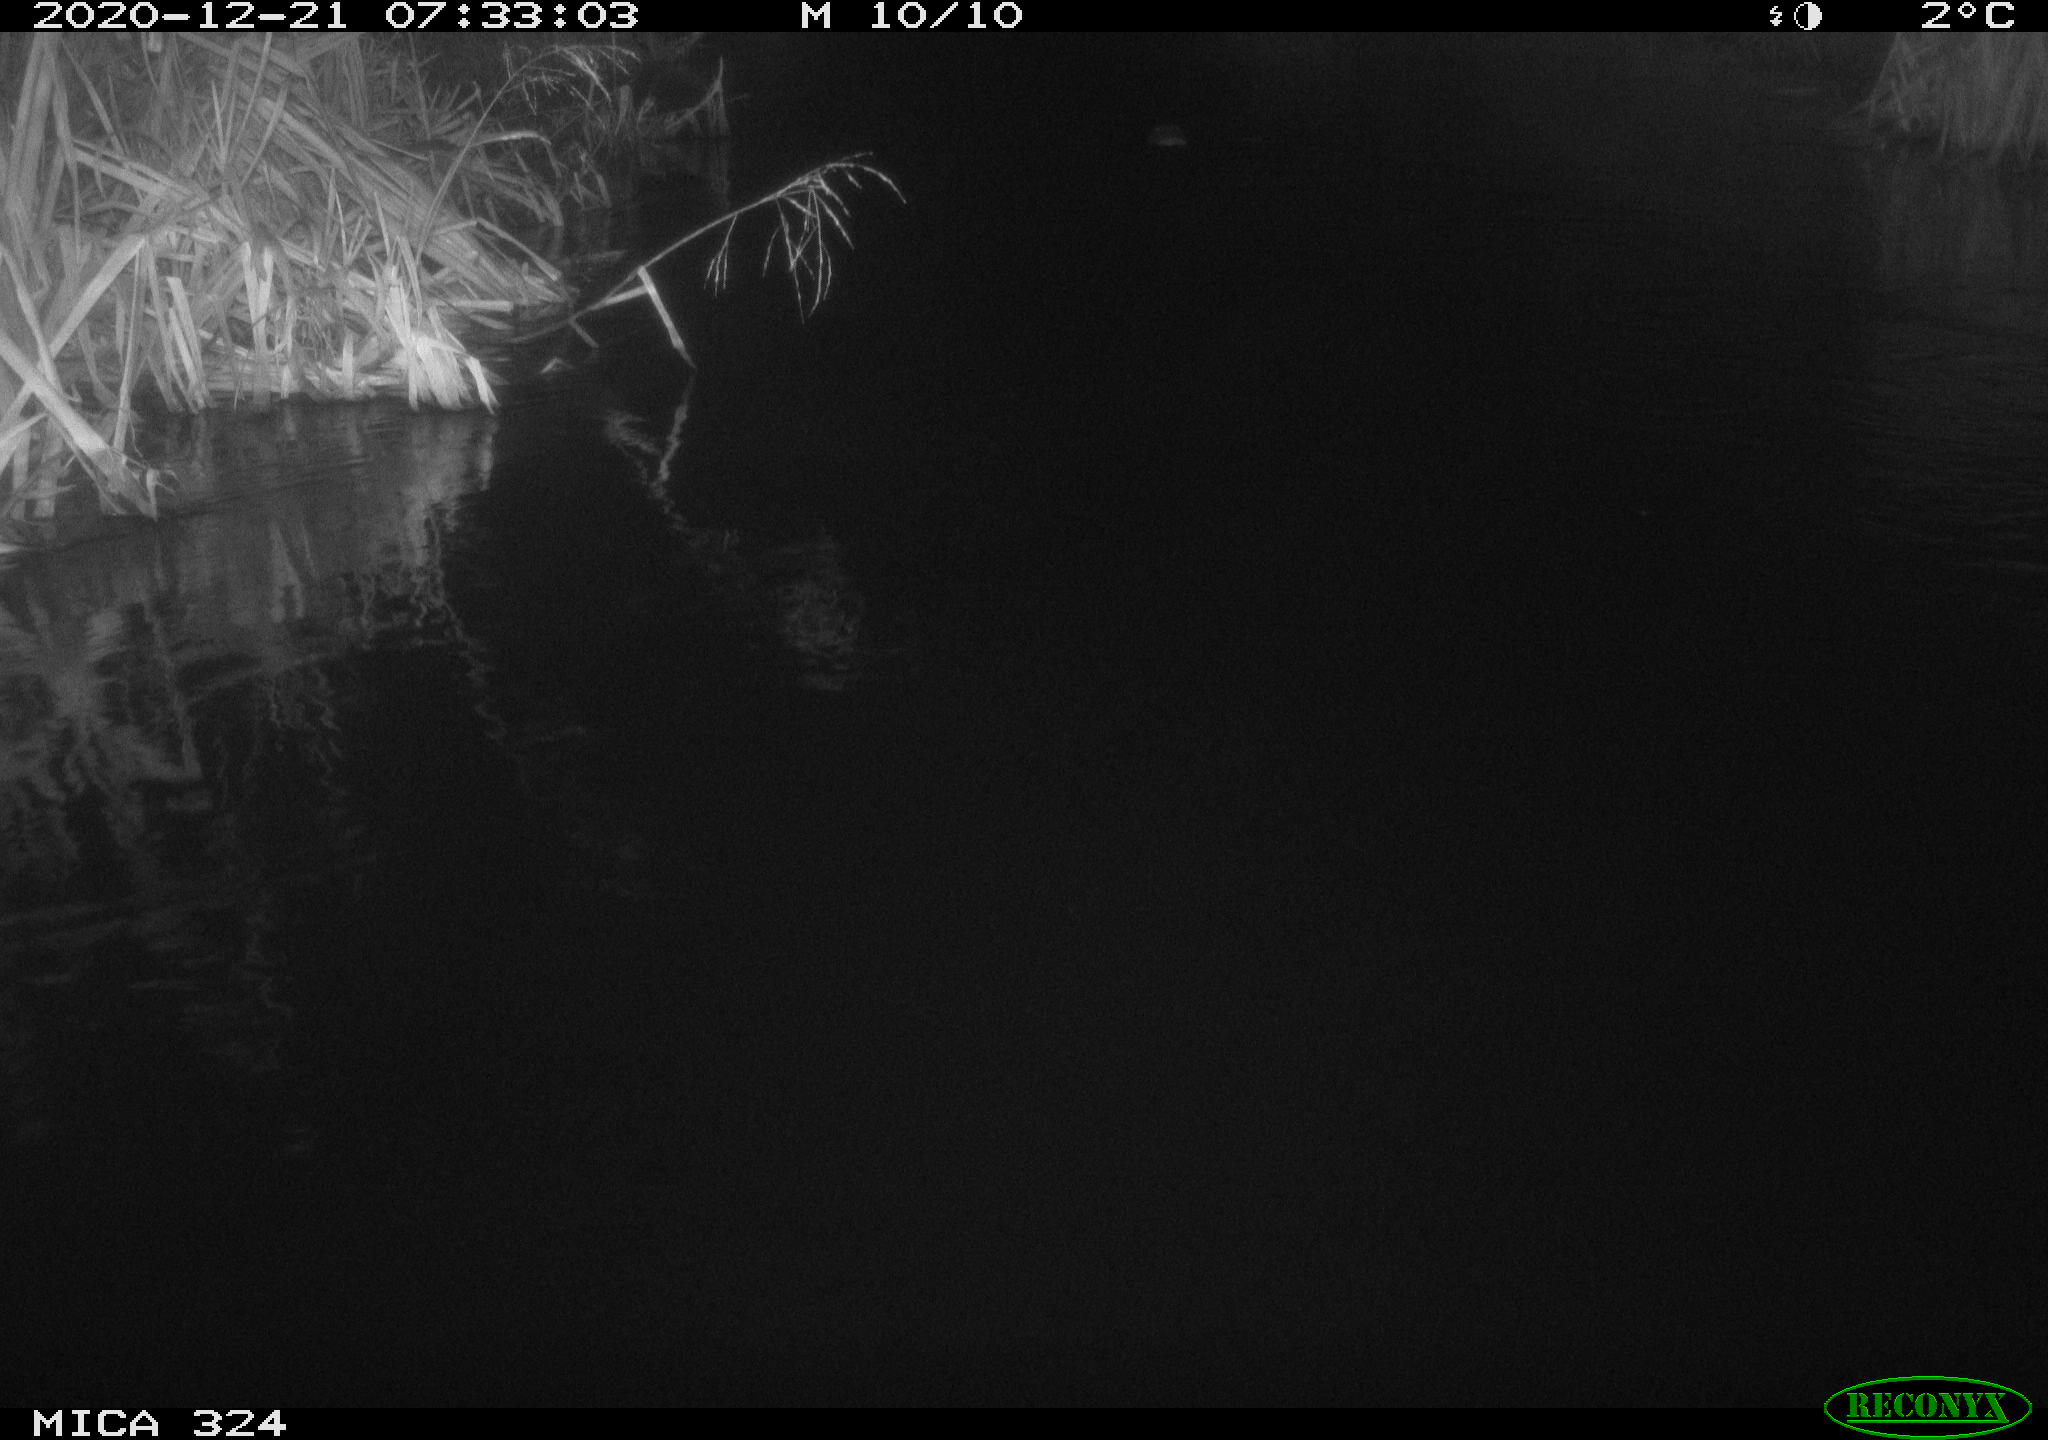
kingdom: Animalia
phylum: Chordata
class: Mammalia
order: Rodentia
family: Cricetidae
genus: Ondatra
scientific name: Ondatra zibethicus
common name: Muskrat
